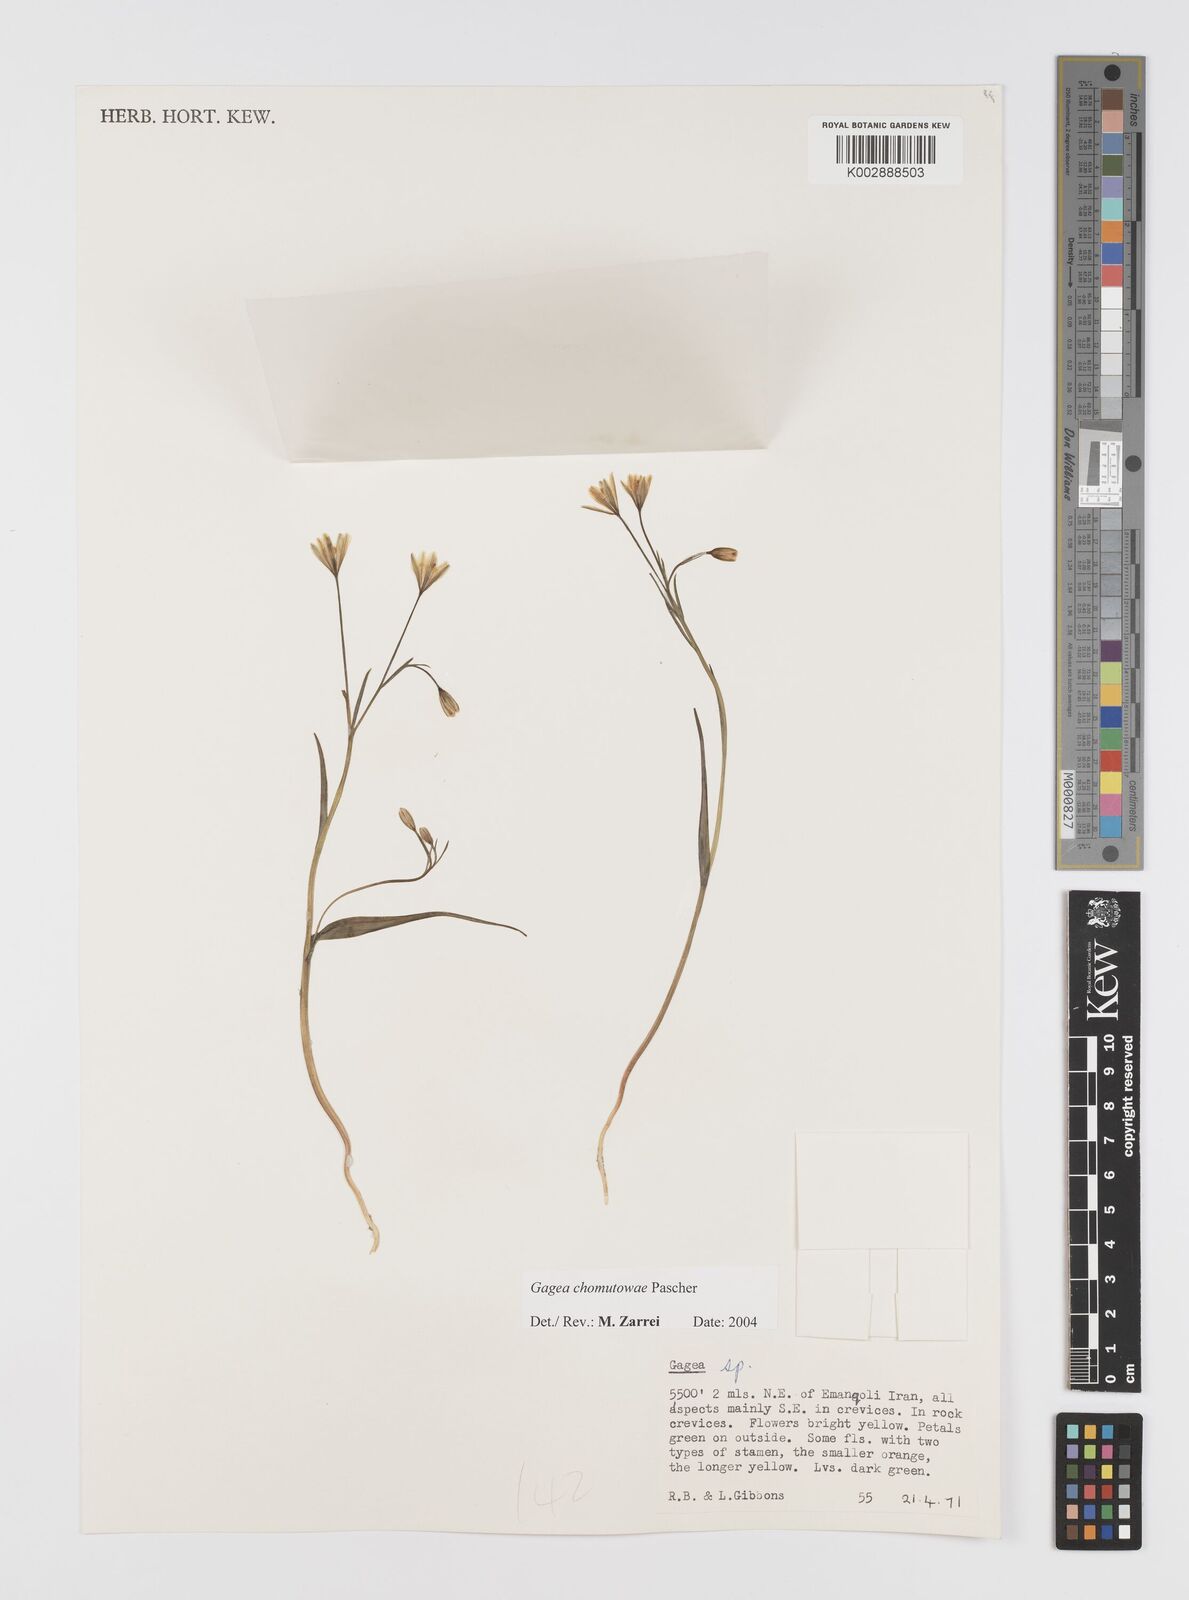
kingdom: Plantae
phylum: Tracheophyta
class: Liliopsida
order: Liliales
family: Liliaceae
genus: Gagea
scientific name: Gagea chomutovae
